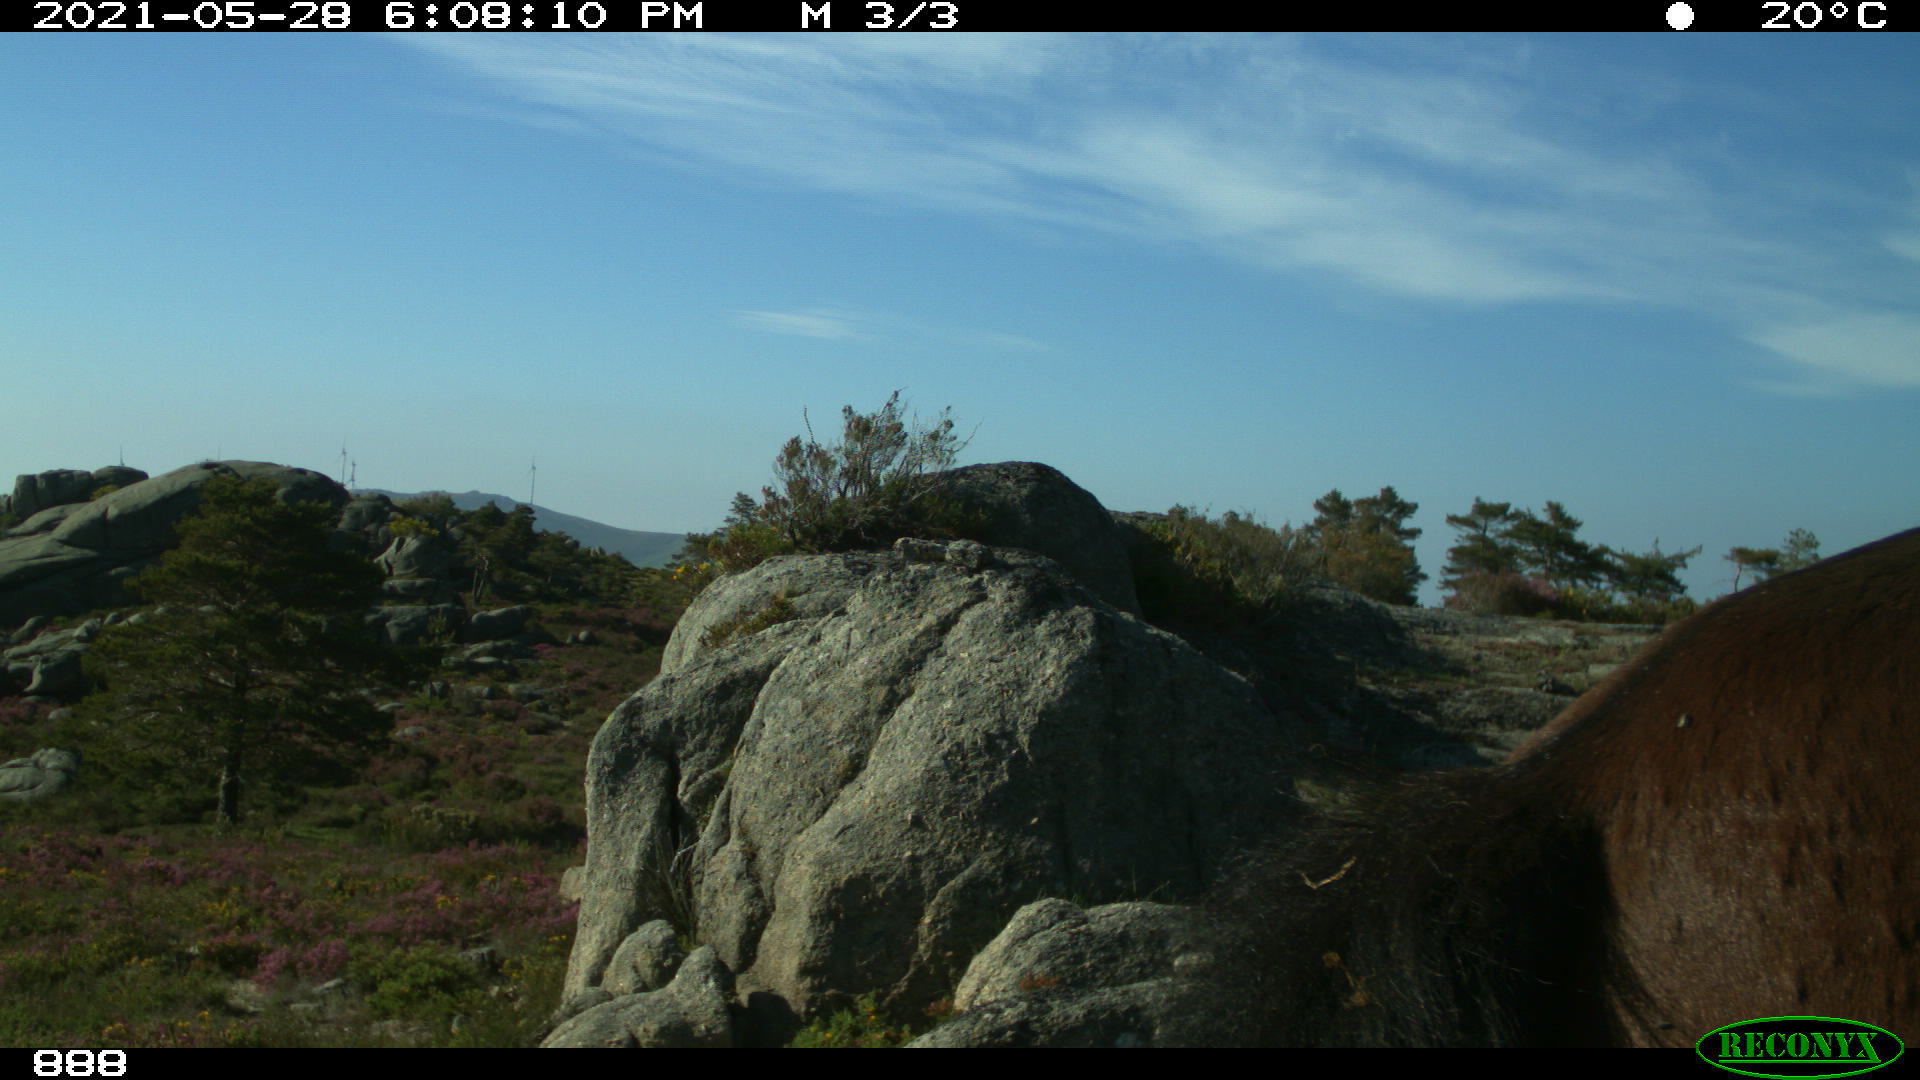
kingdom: Animalia
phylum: Chordata
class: Mammalia
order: Perissodactyla
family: Equidae
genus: Equus
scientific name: Equus caballus
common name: Horse
